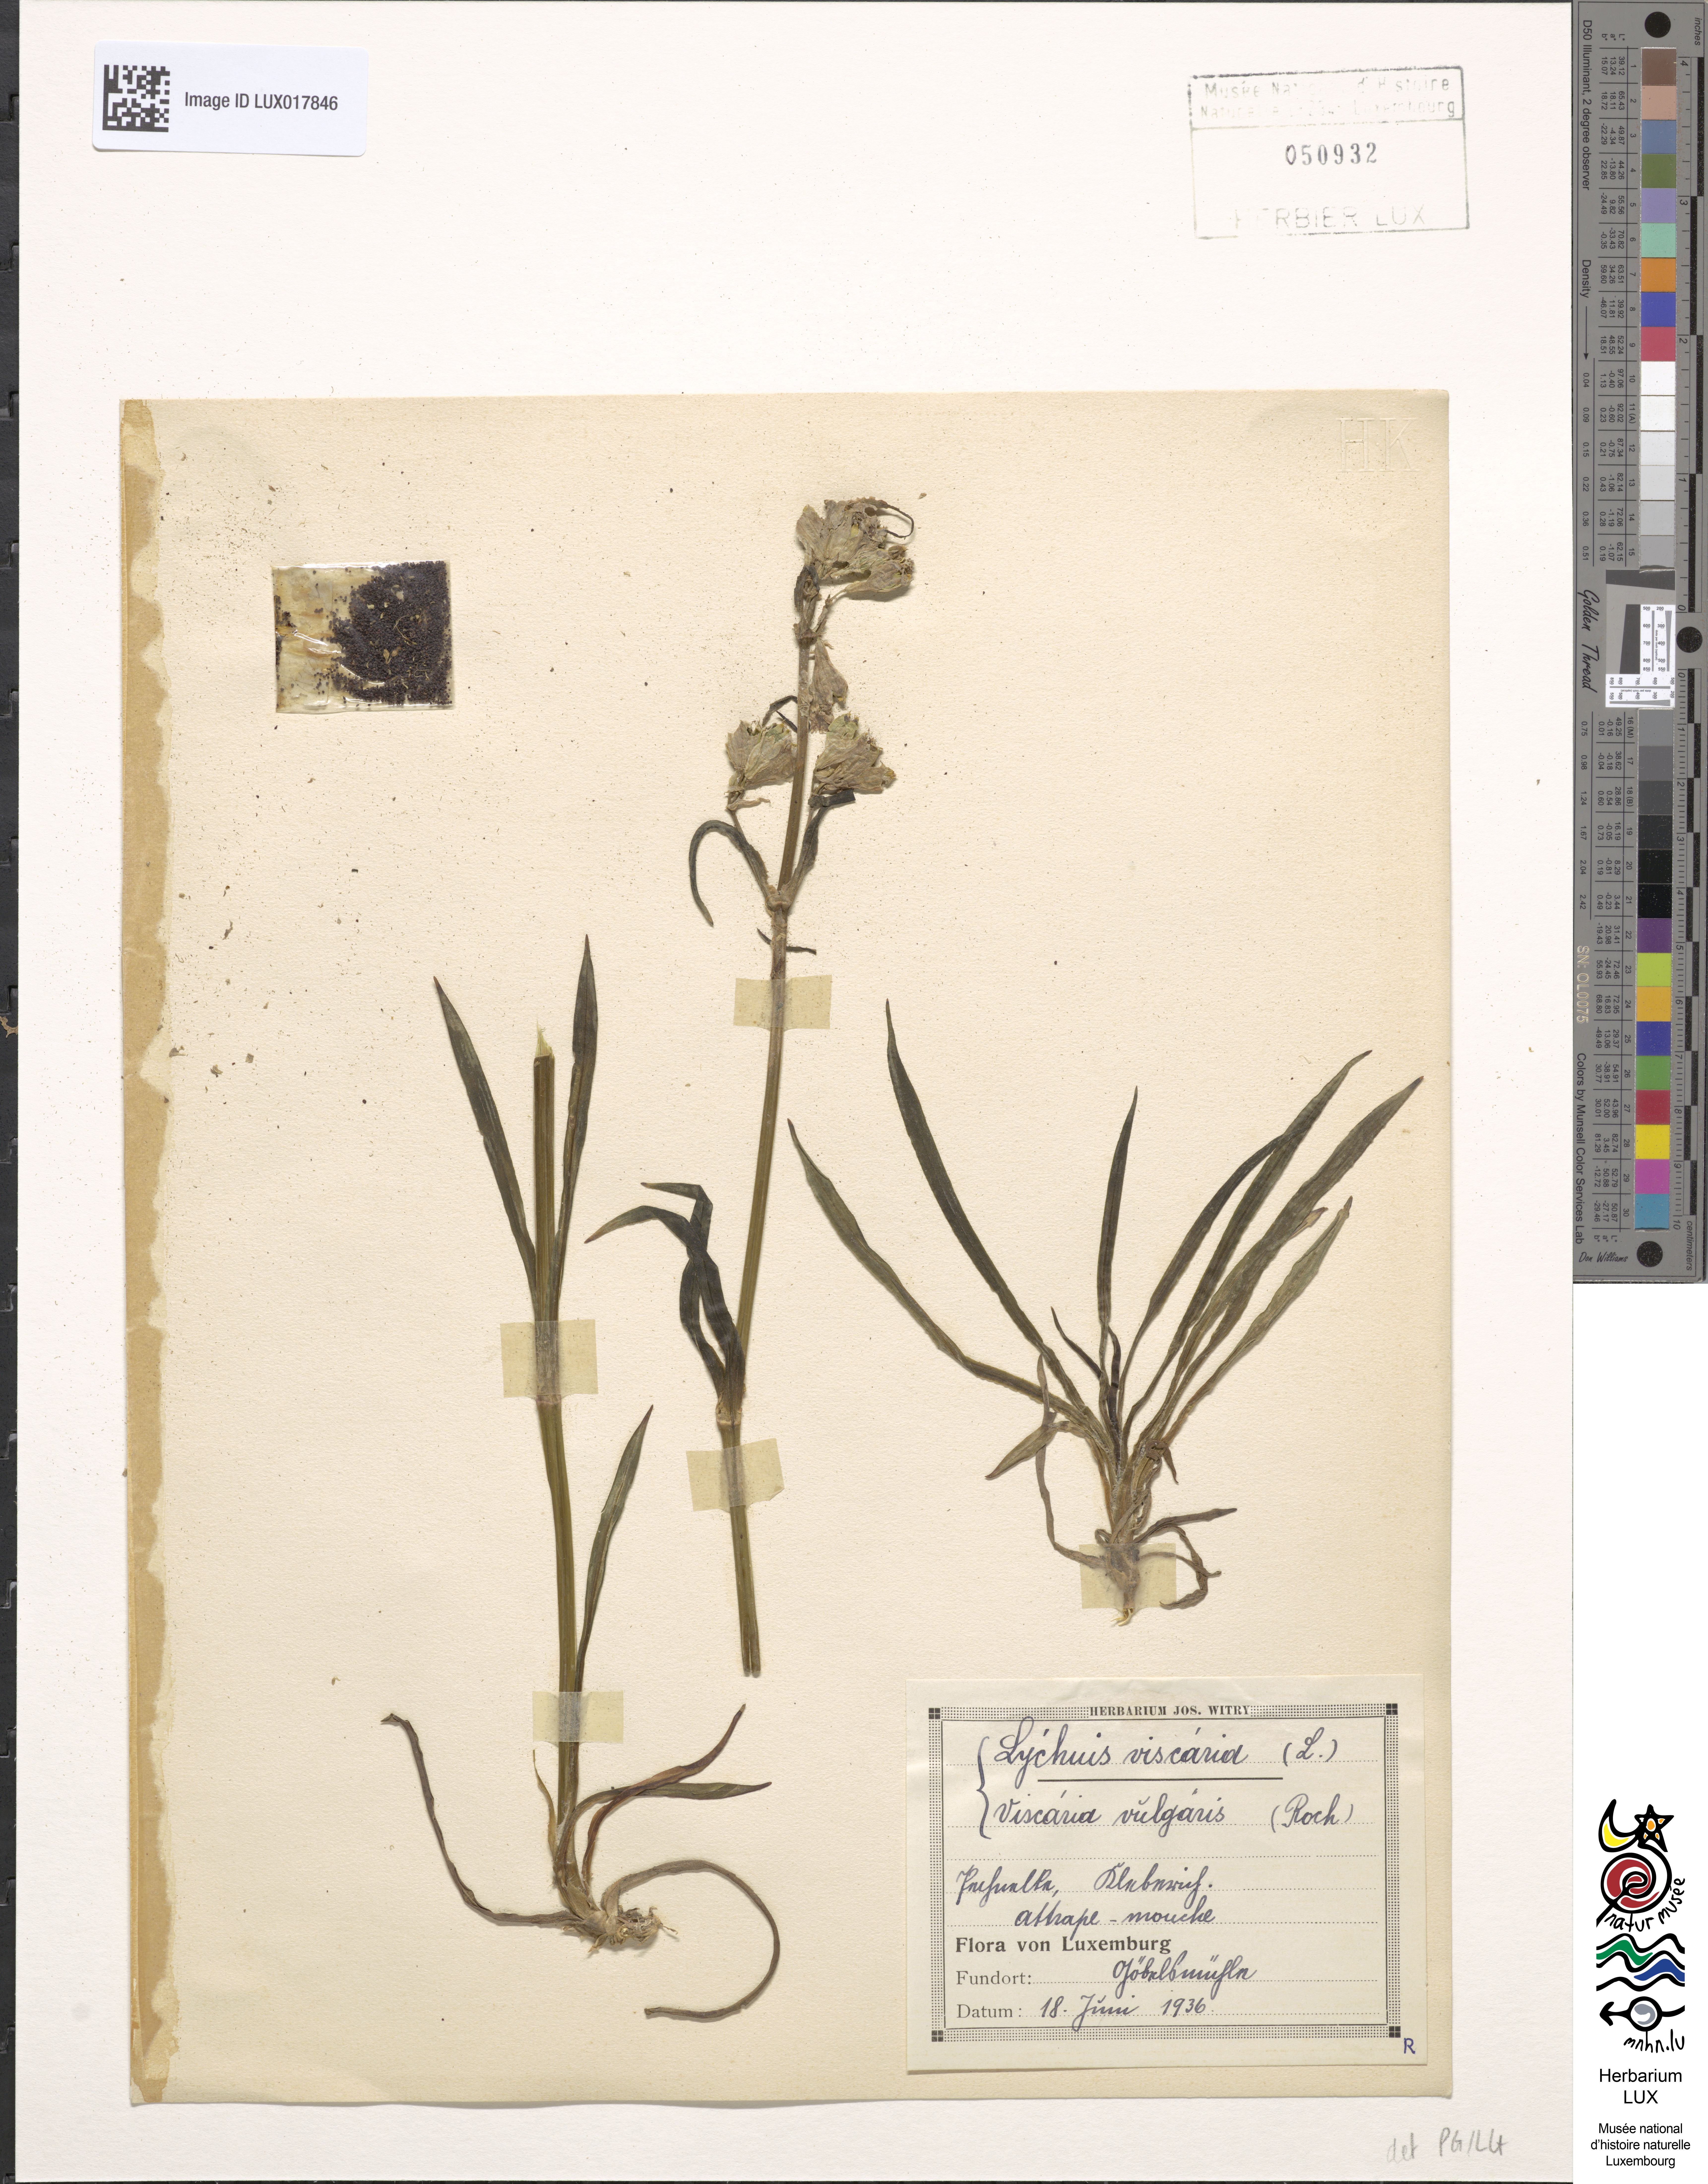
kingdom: Plantae
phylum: Tracheophyta
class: Magnoliopsida
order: Caryophyllales
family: Caryophyllaceae
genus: Viscaria
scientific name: Viscaria vulgaris
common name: Clammy campion
